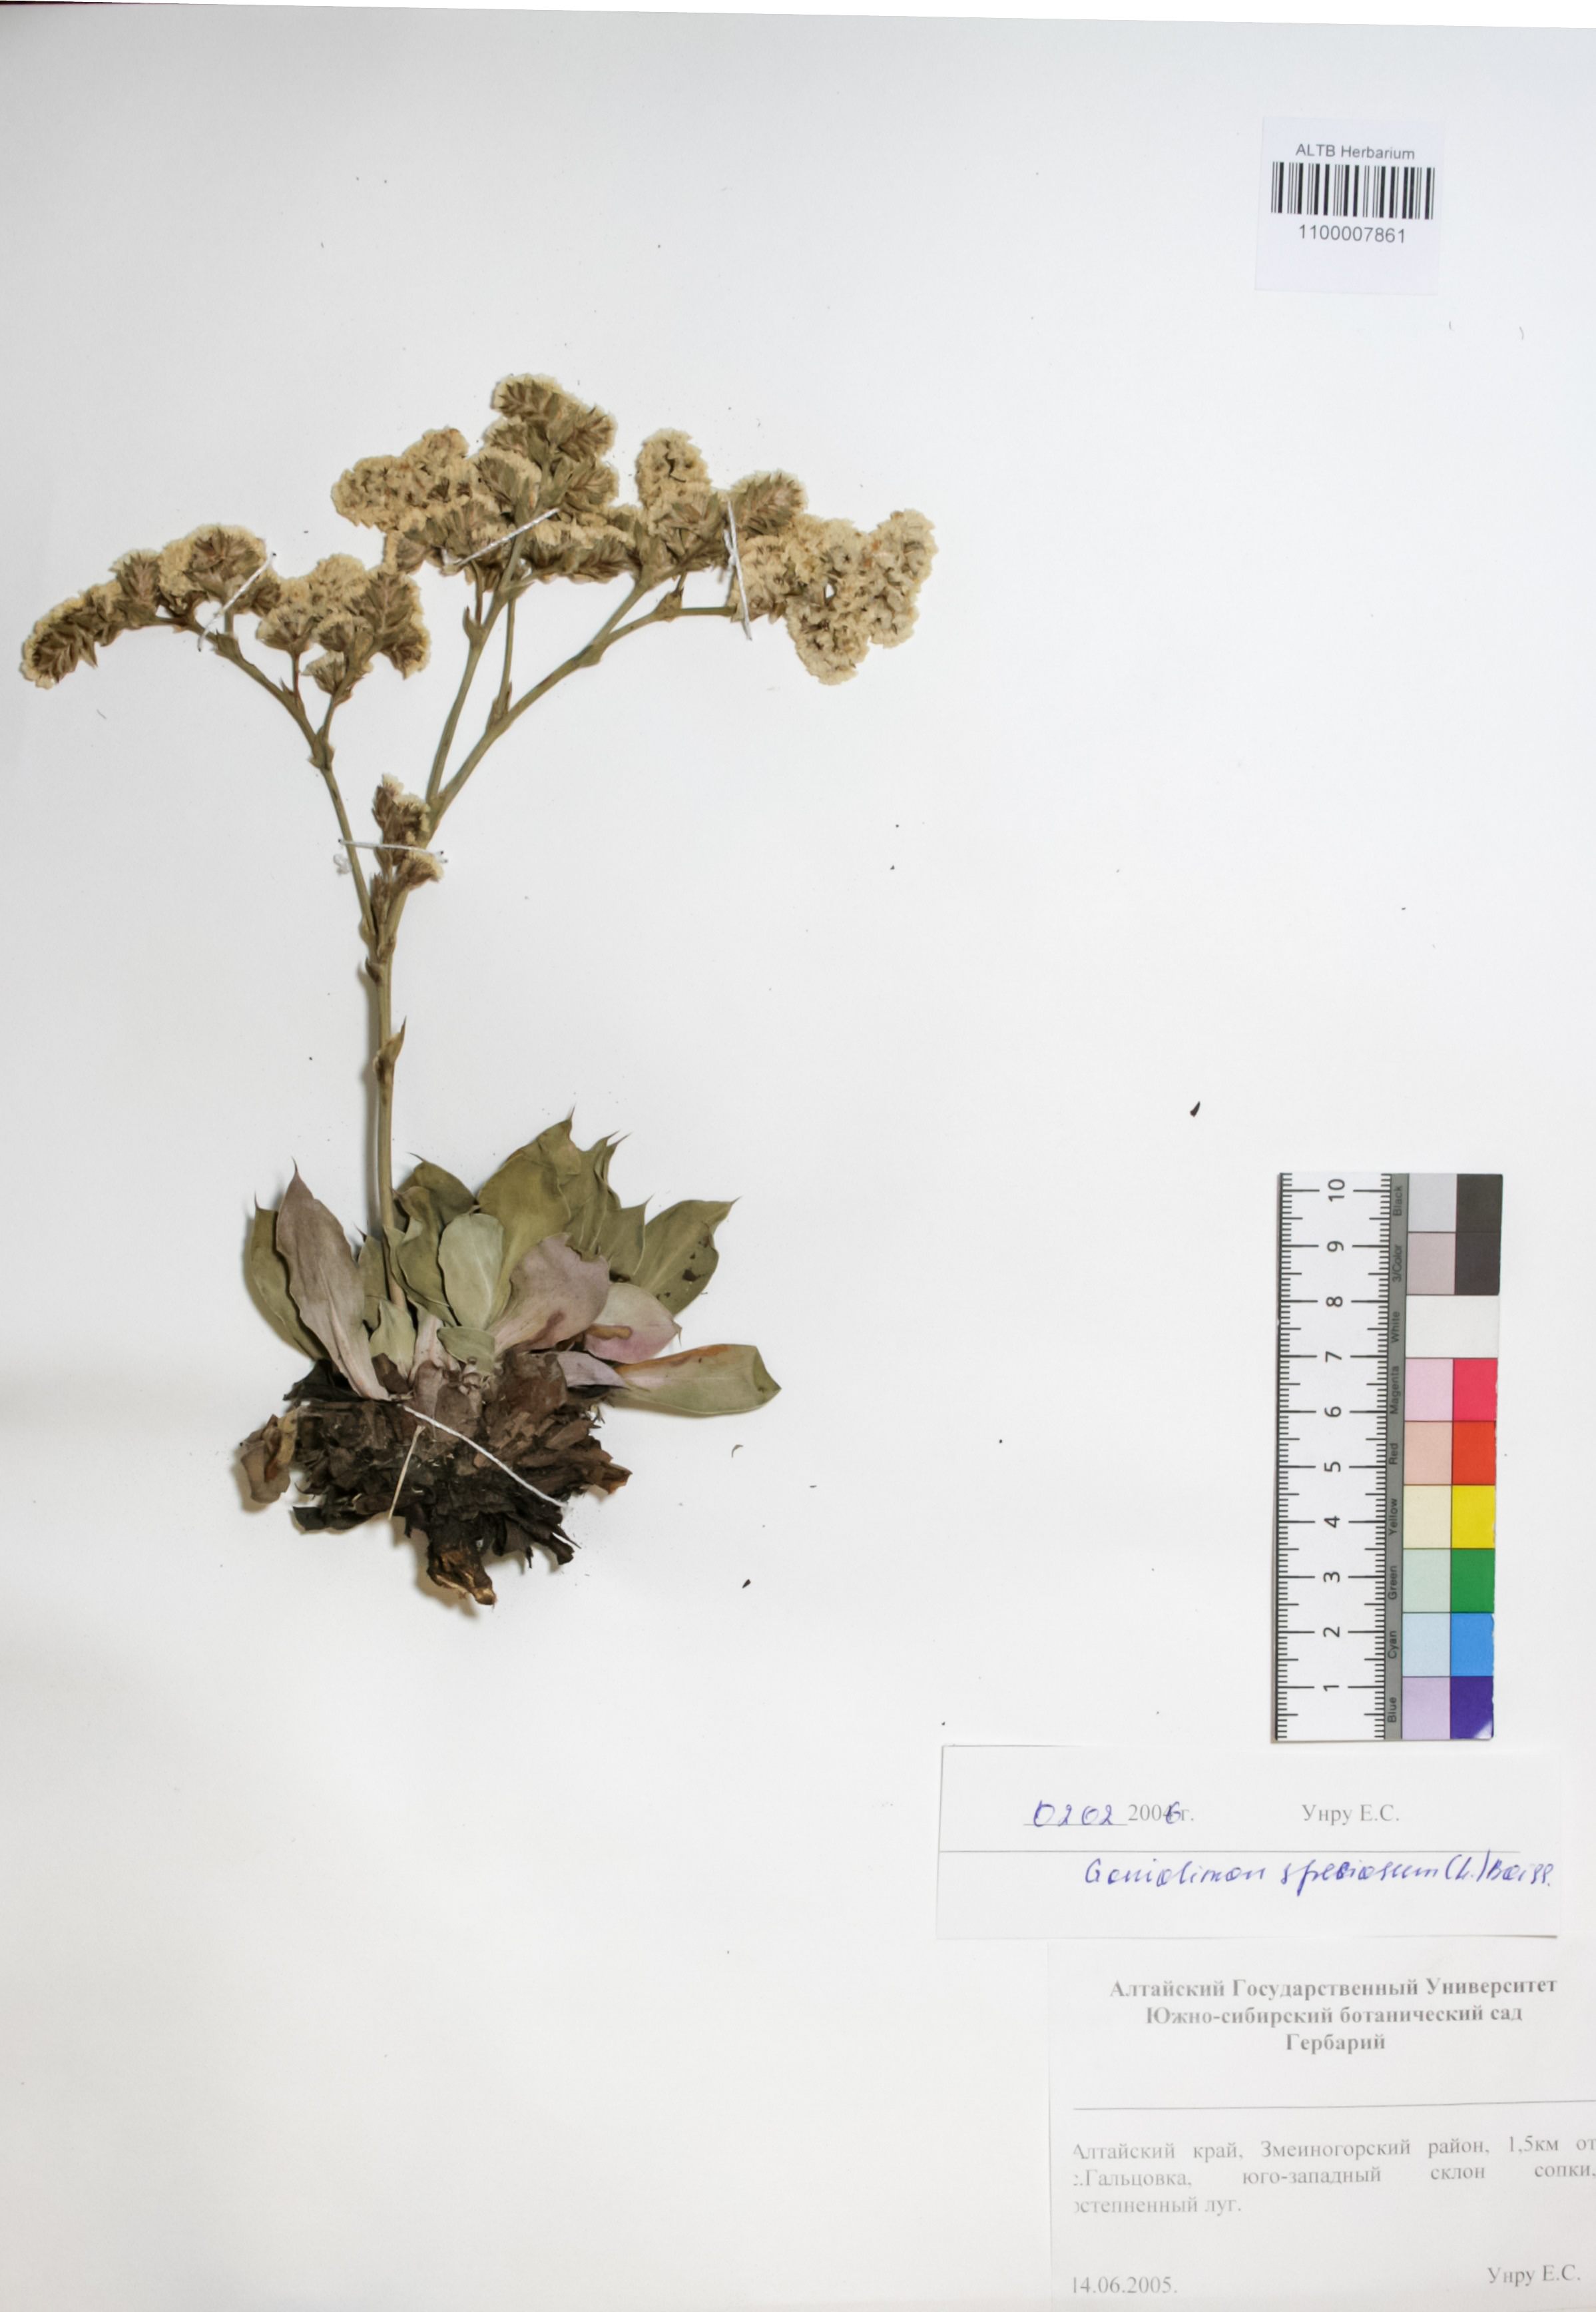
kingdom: Plantae
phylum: Tracheophyta
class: Magnoliopsida
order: Caryophyllales
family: Plumbaginaceae
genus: Goniolimon
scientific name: Goniolimon speciosum
